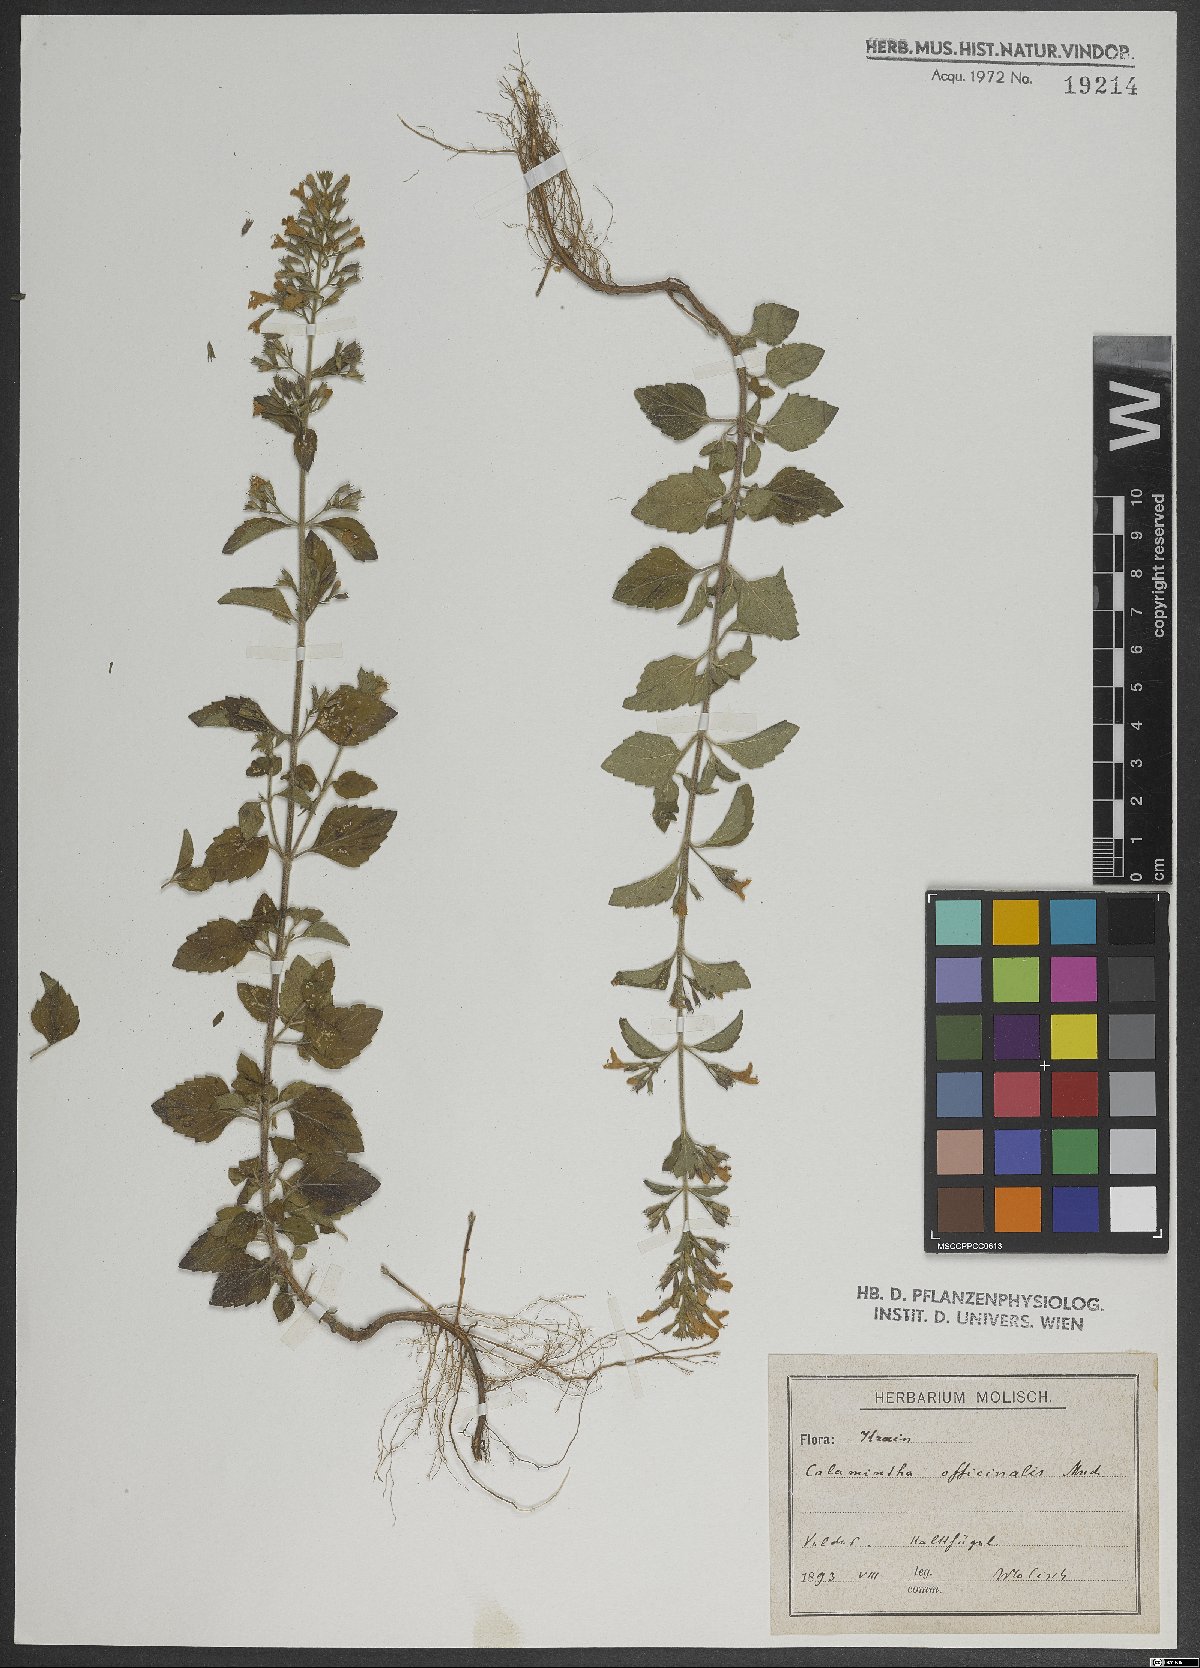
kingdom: Plantae
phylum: Tracheophyta
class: Magnoliopsida
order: Lamiales
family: Lamiaceae
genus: Clinopodium
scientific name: Clinopodium nepeta
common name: Lesser calamint
